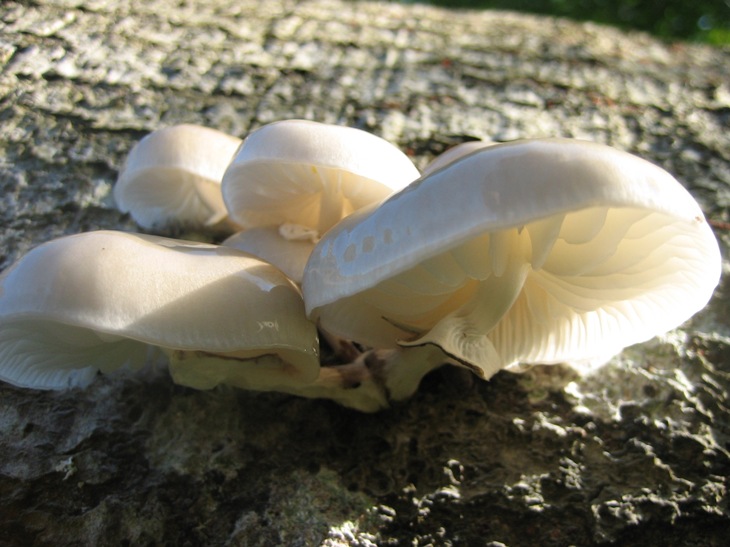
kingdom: Fungi
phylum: Basidiomycota
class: Agaricomycetes
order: Agaricales
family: Physalacriaceae
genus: Mucidula
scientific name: Mucidula mucida
